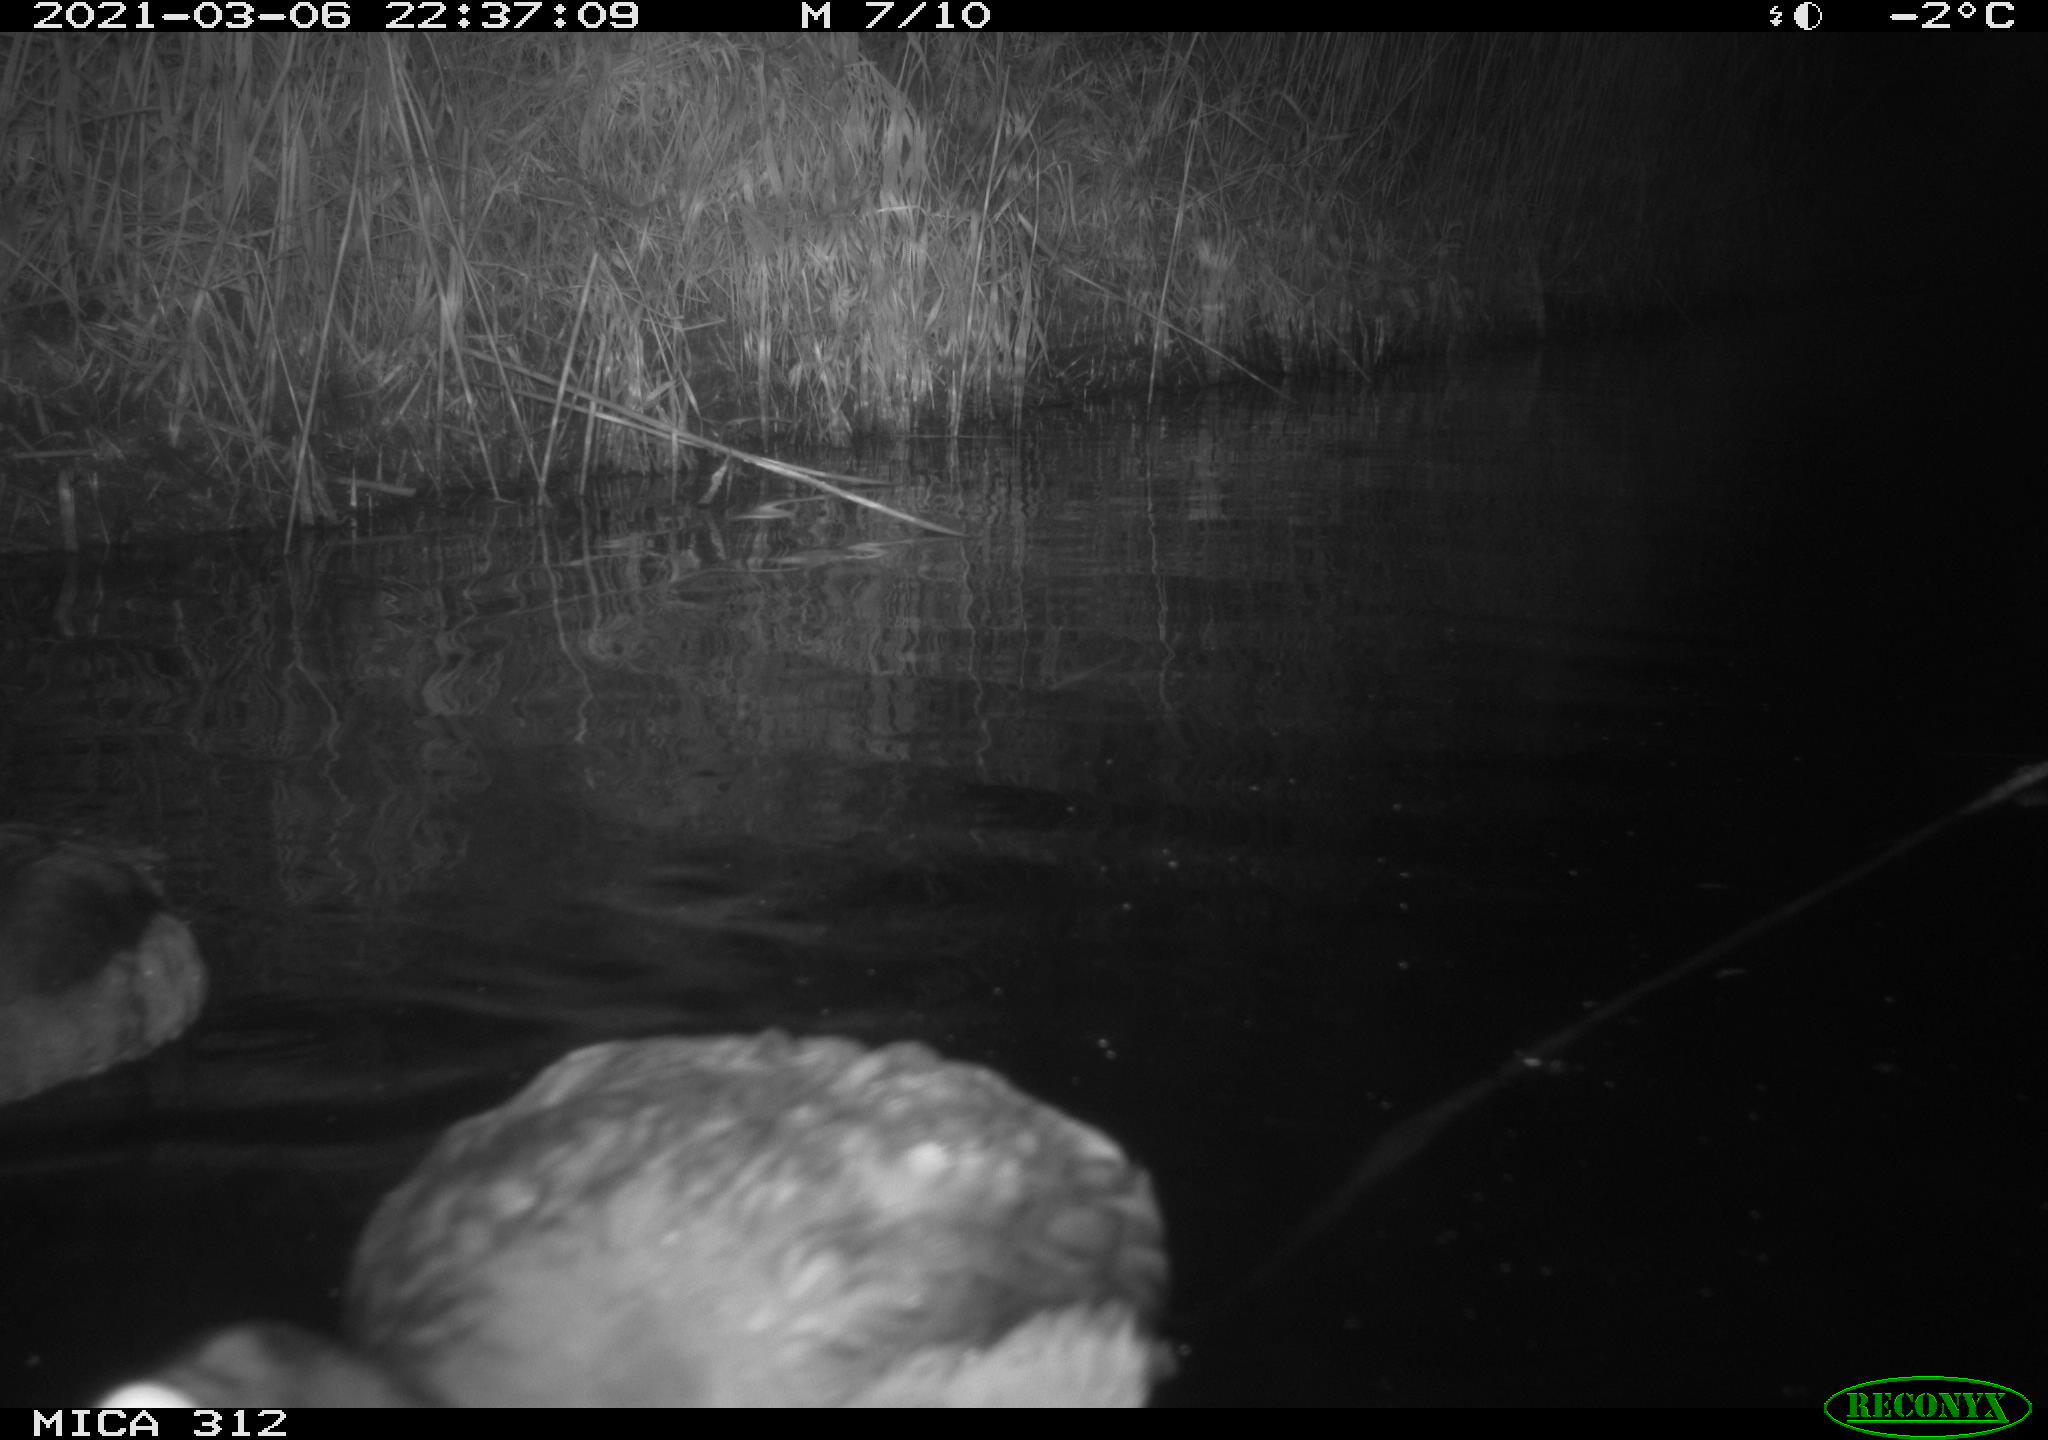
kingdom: Animalia
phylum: Chordata
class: Aves
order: Gruiformes
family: Rallidae
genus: Fulica
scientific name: Fulica atra
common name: Eurasian coot
